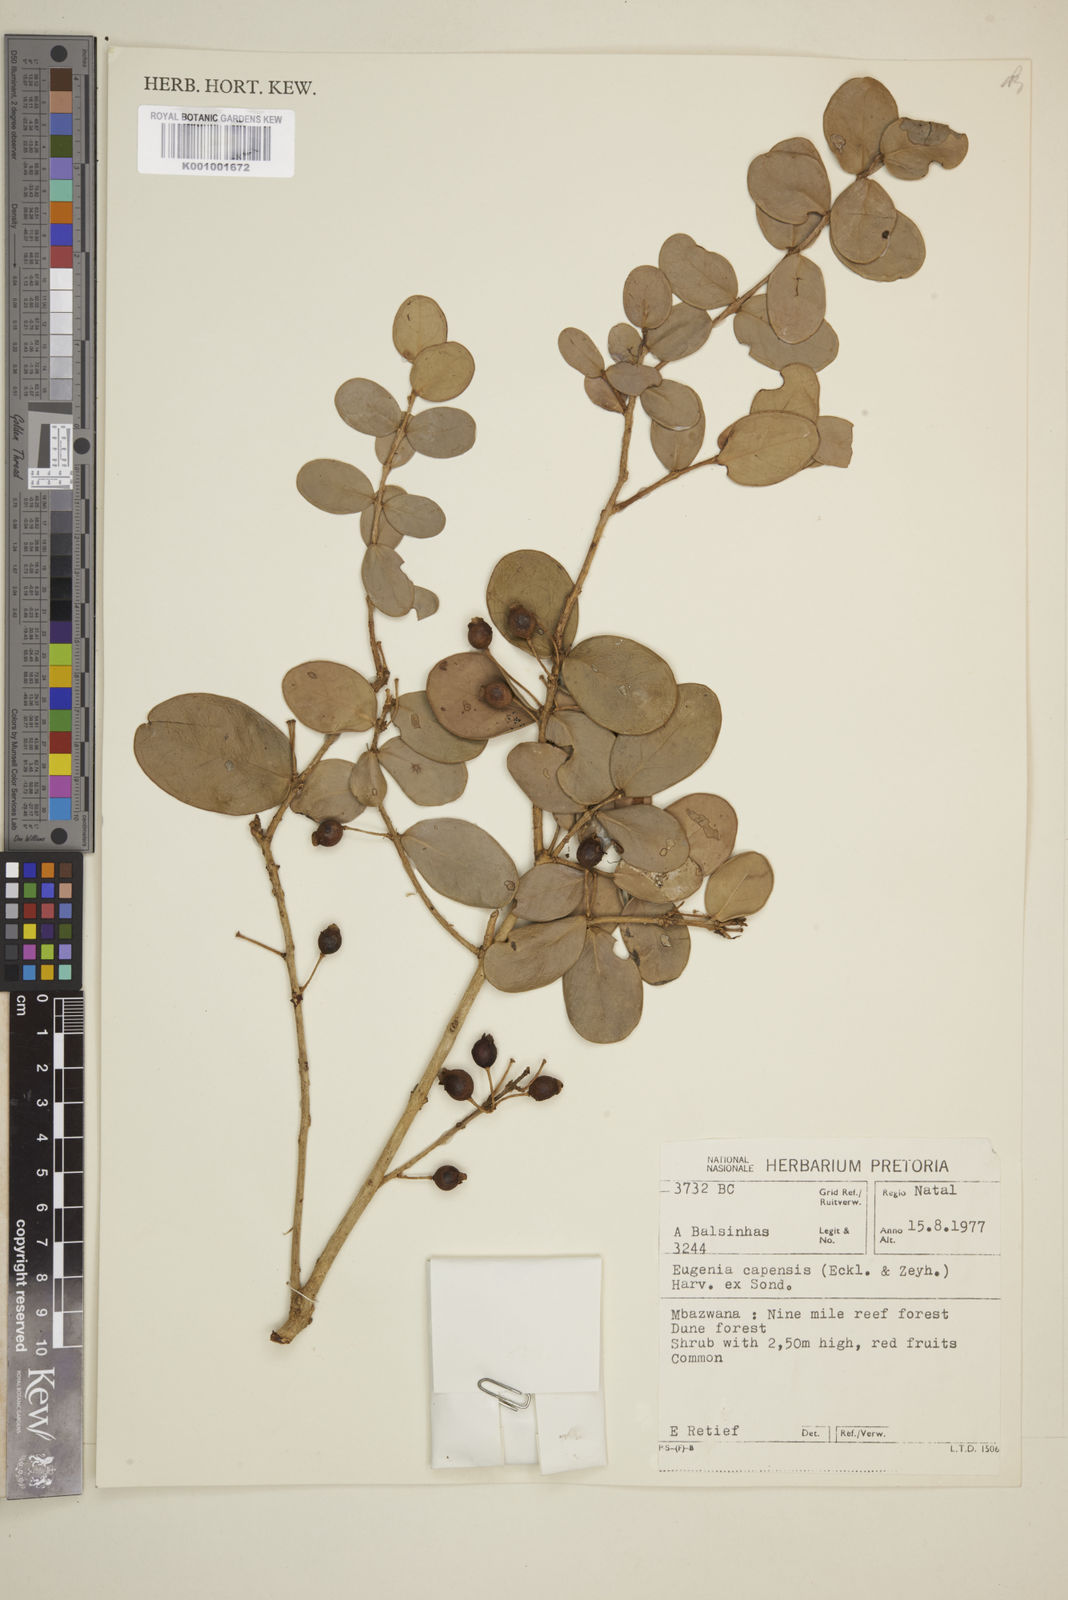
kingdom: Plantae
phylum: Tracheophyta
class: Magnoliopsida
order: Myrtales
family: Myrtaceae
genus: Eugenia
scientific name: Eugenia
